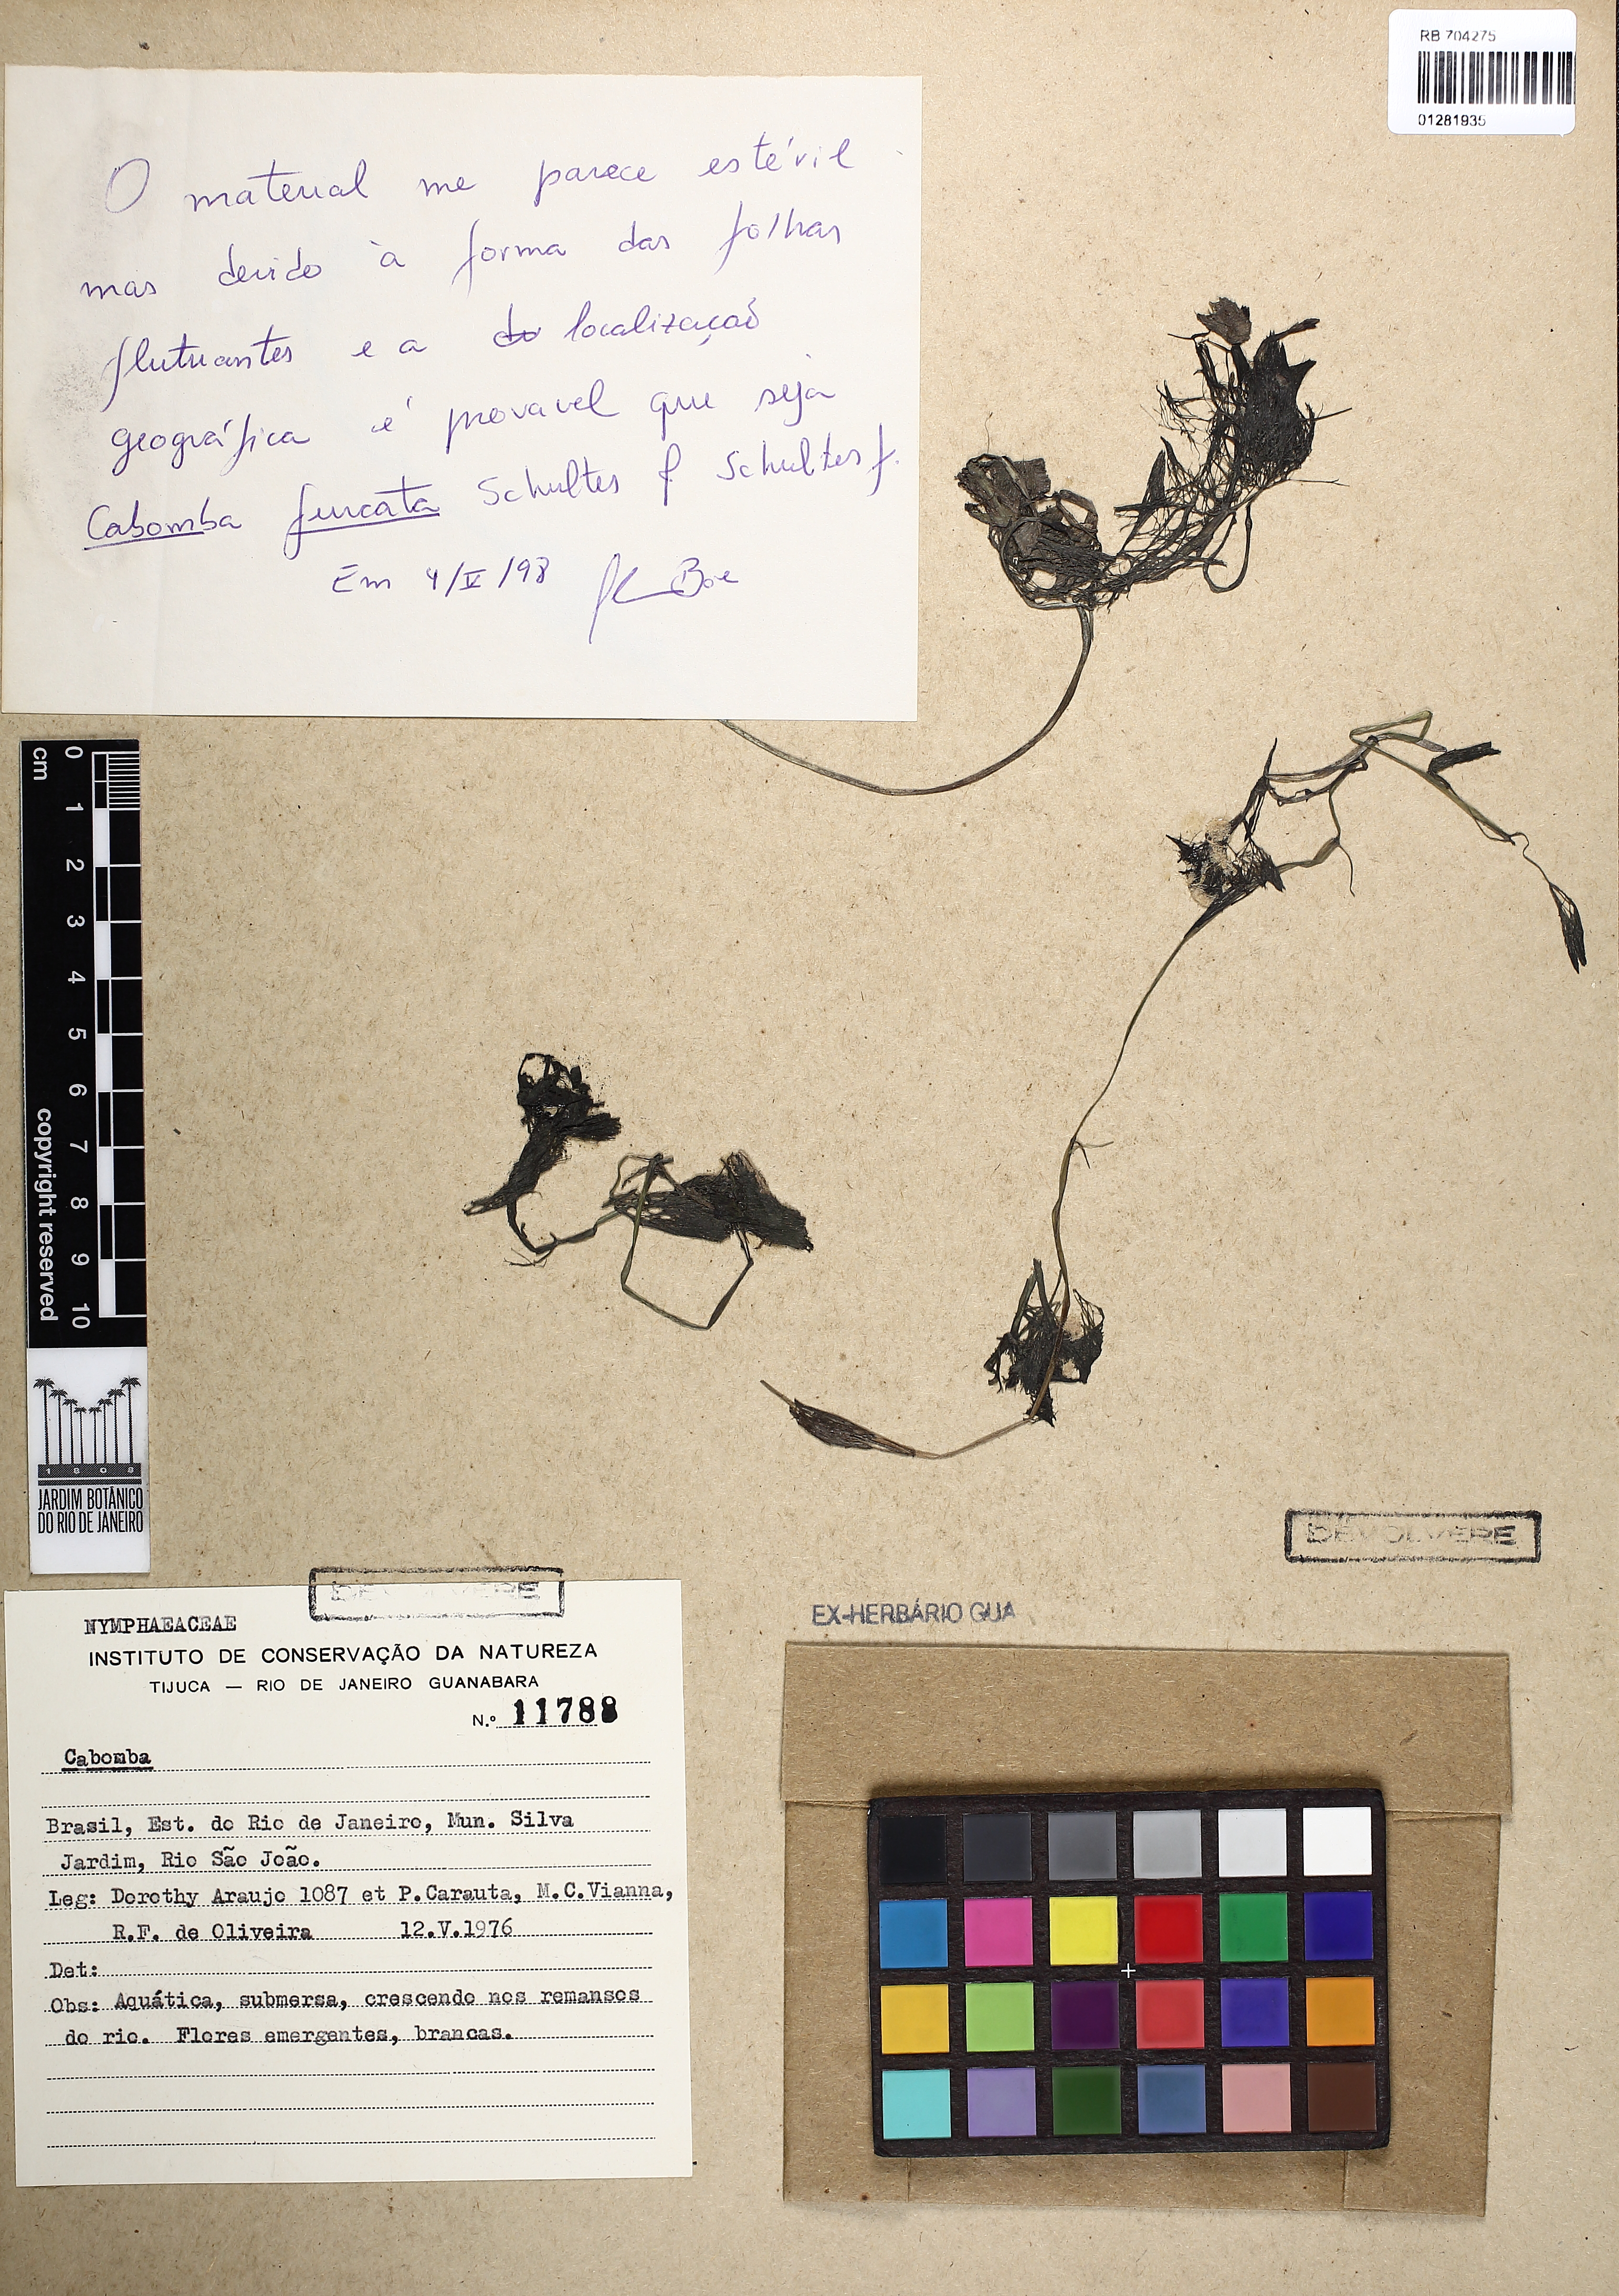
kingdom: Plantae
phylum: Tracheophyta
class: Magnoliopsida
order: Nymphaeales
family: Cabombaceae
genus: Cabomba
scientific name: Cabomba furcata
